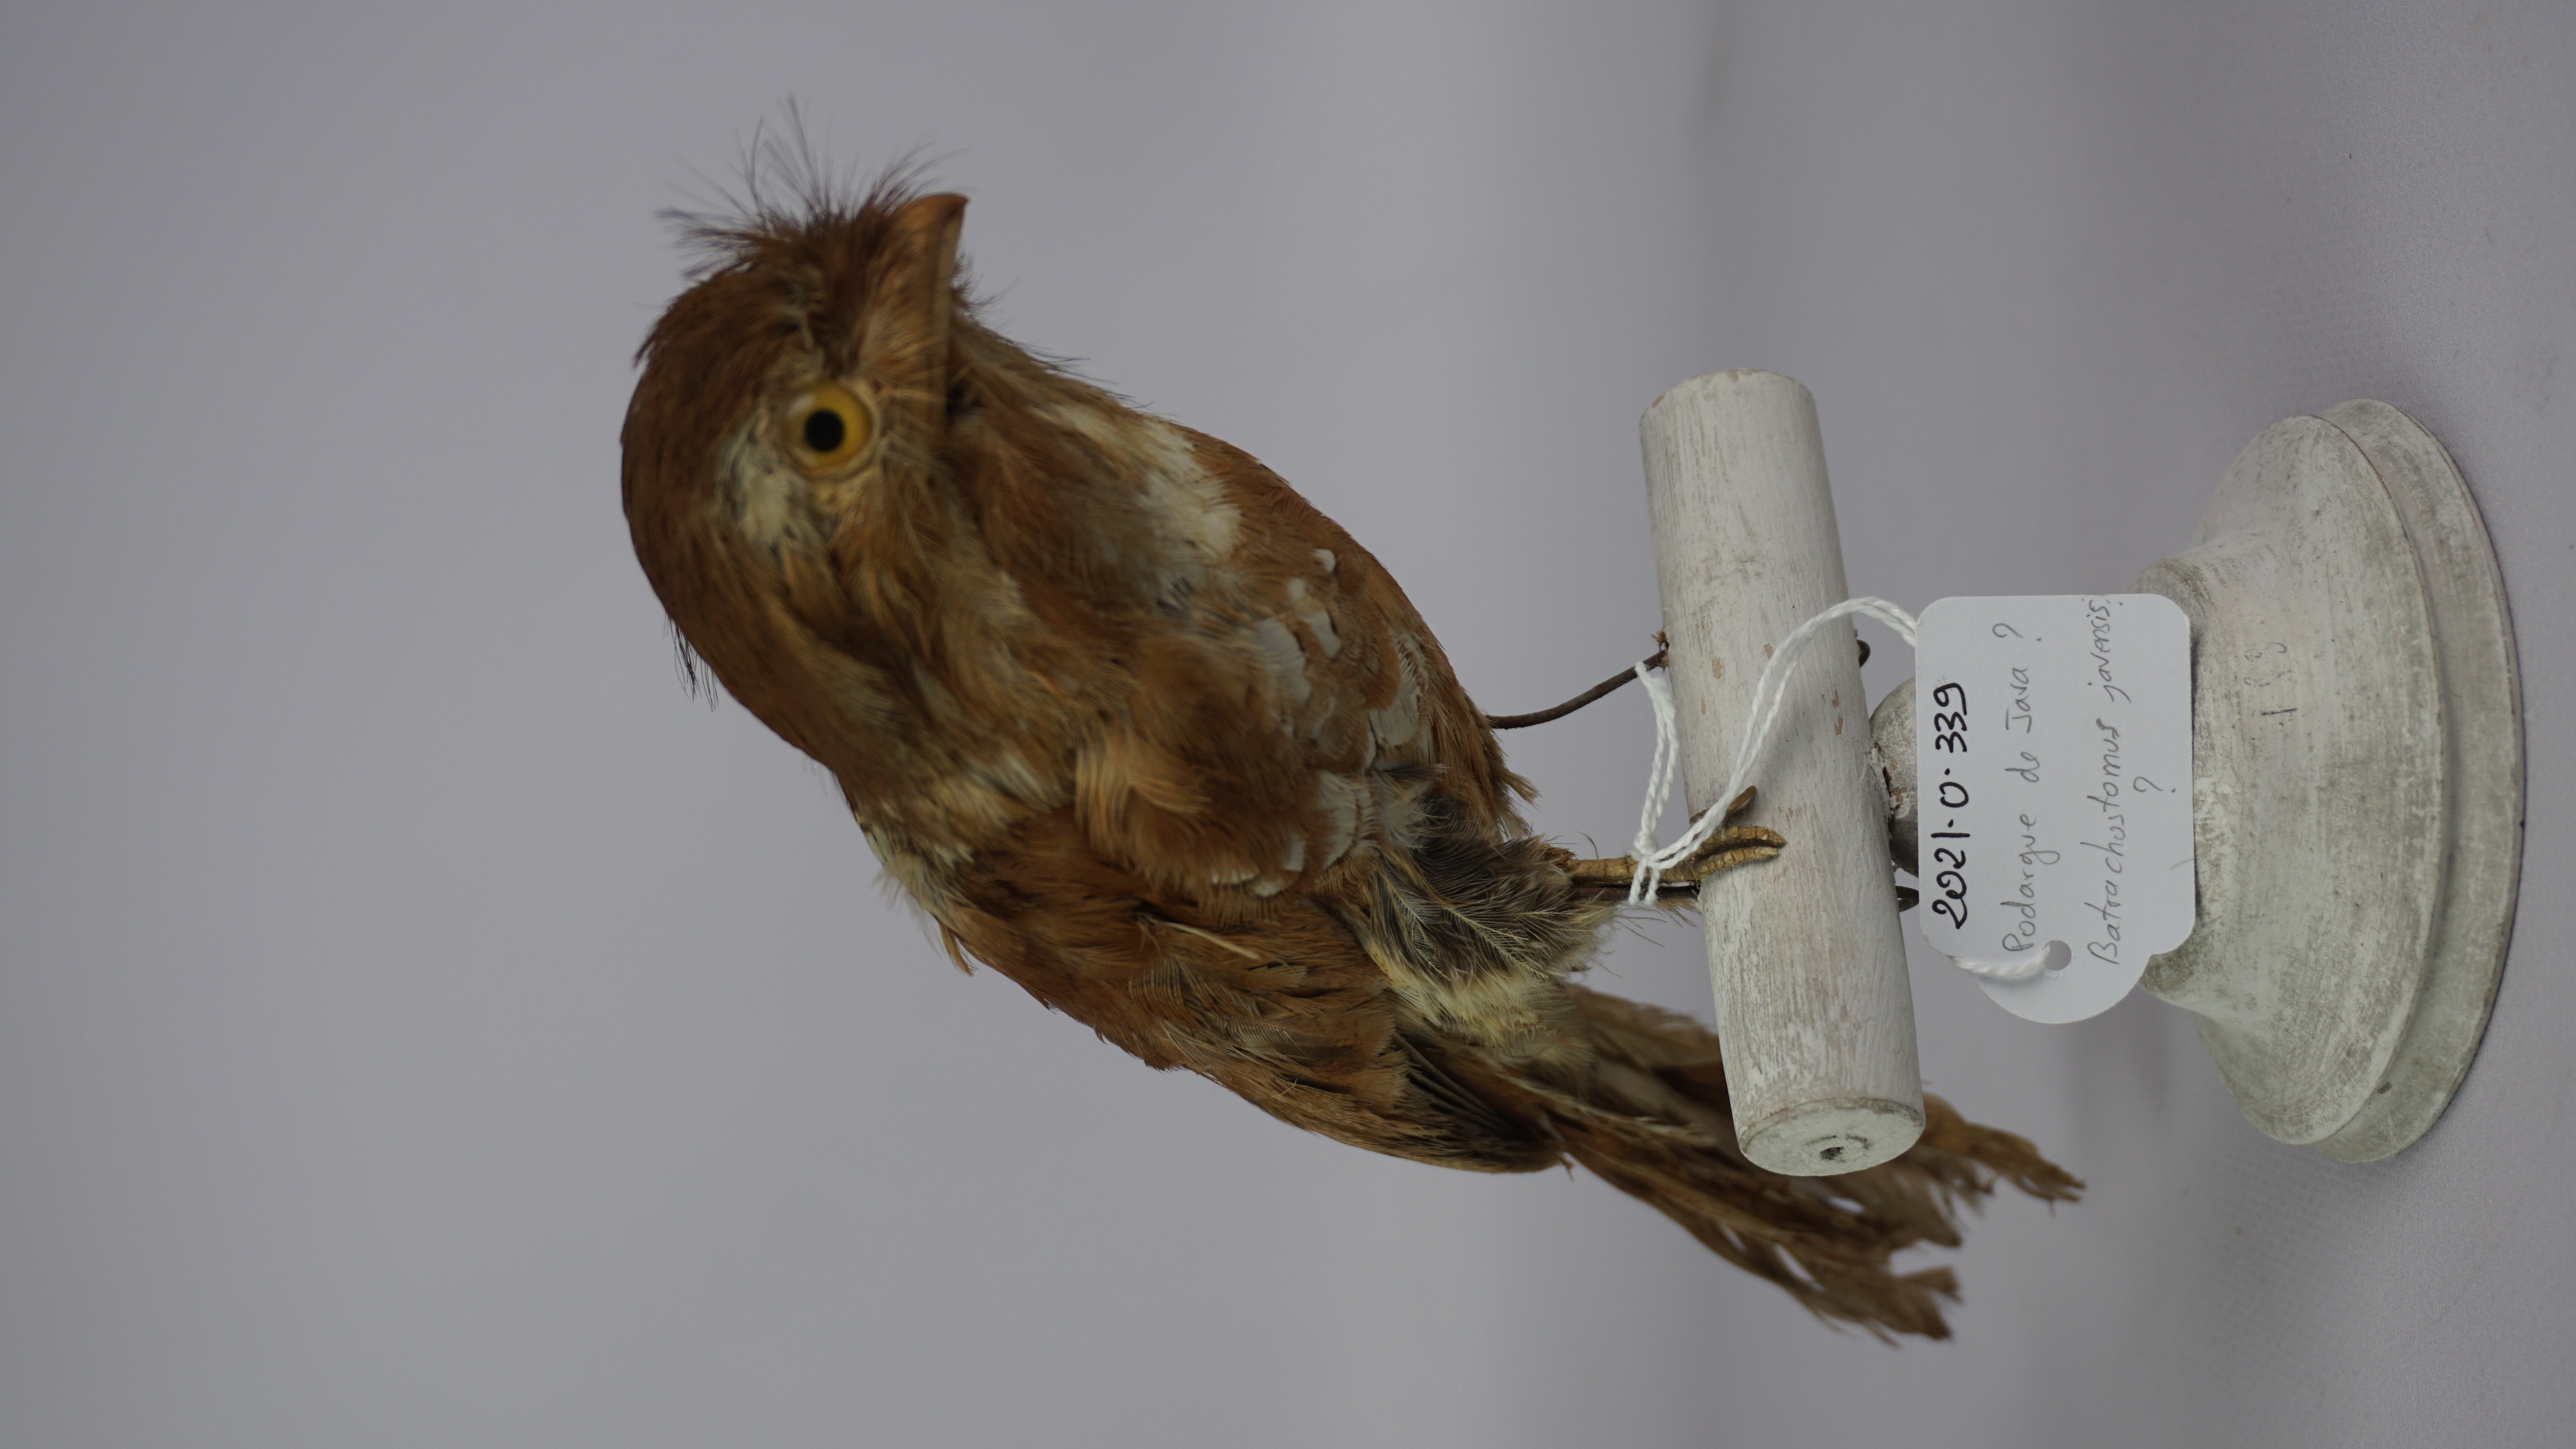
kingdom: Animalia
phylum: Chordata
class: Aves
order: Caprimulgiformes
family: Podargidae
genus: Batrachostomus
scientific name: Batrachostomus javensis
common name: Javan frogmouth
